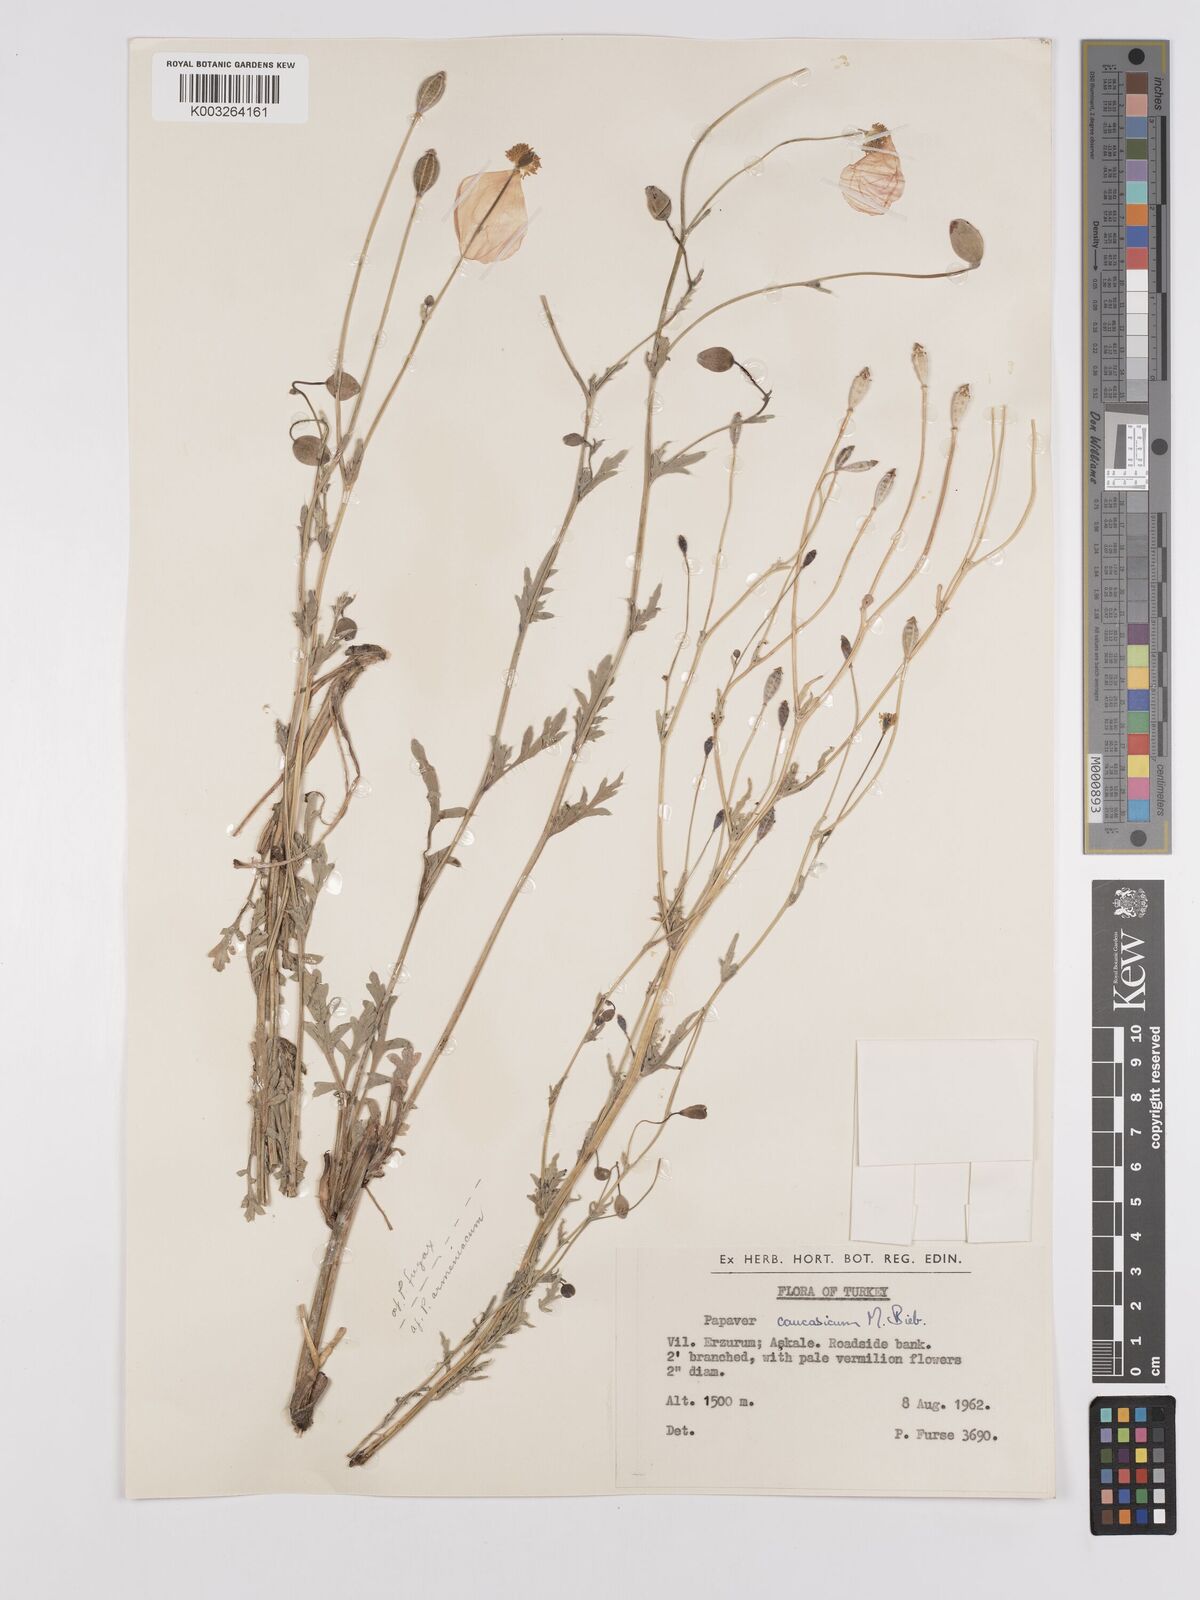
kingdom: Plantae
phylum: Tracheophyta
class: Magnoliopsida
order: Ranunculales
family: Papaveraceae
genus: Papaver
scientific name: Papaver armeniacum
